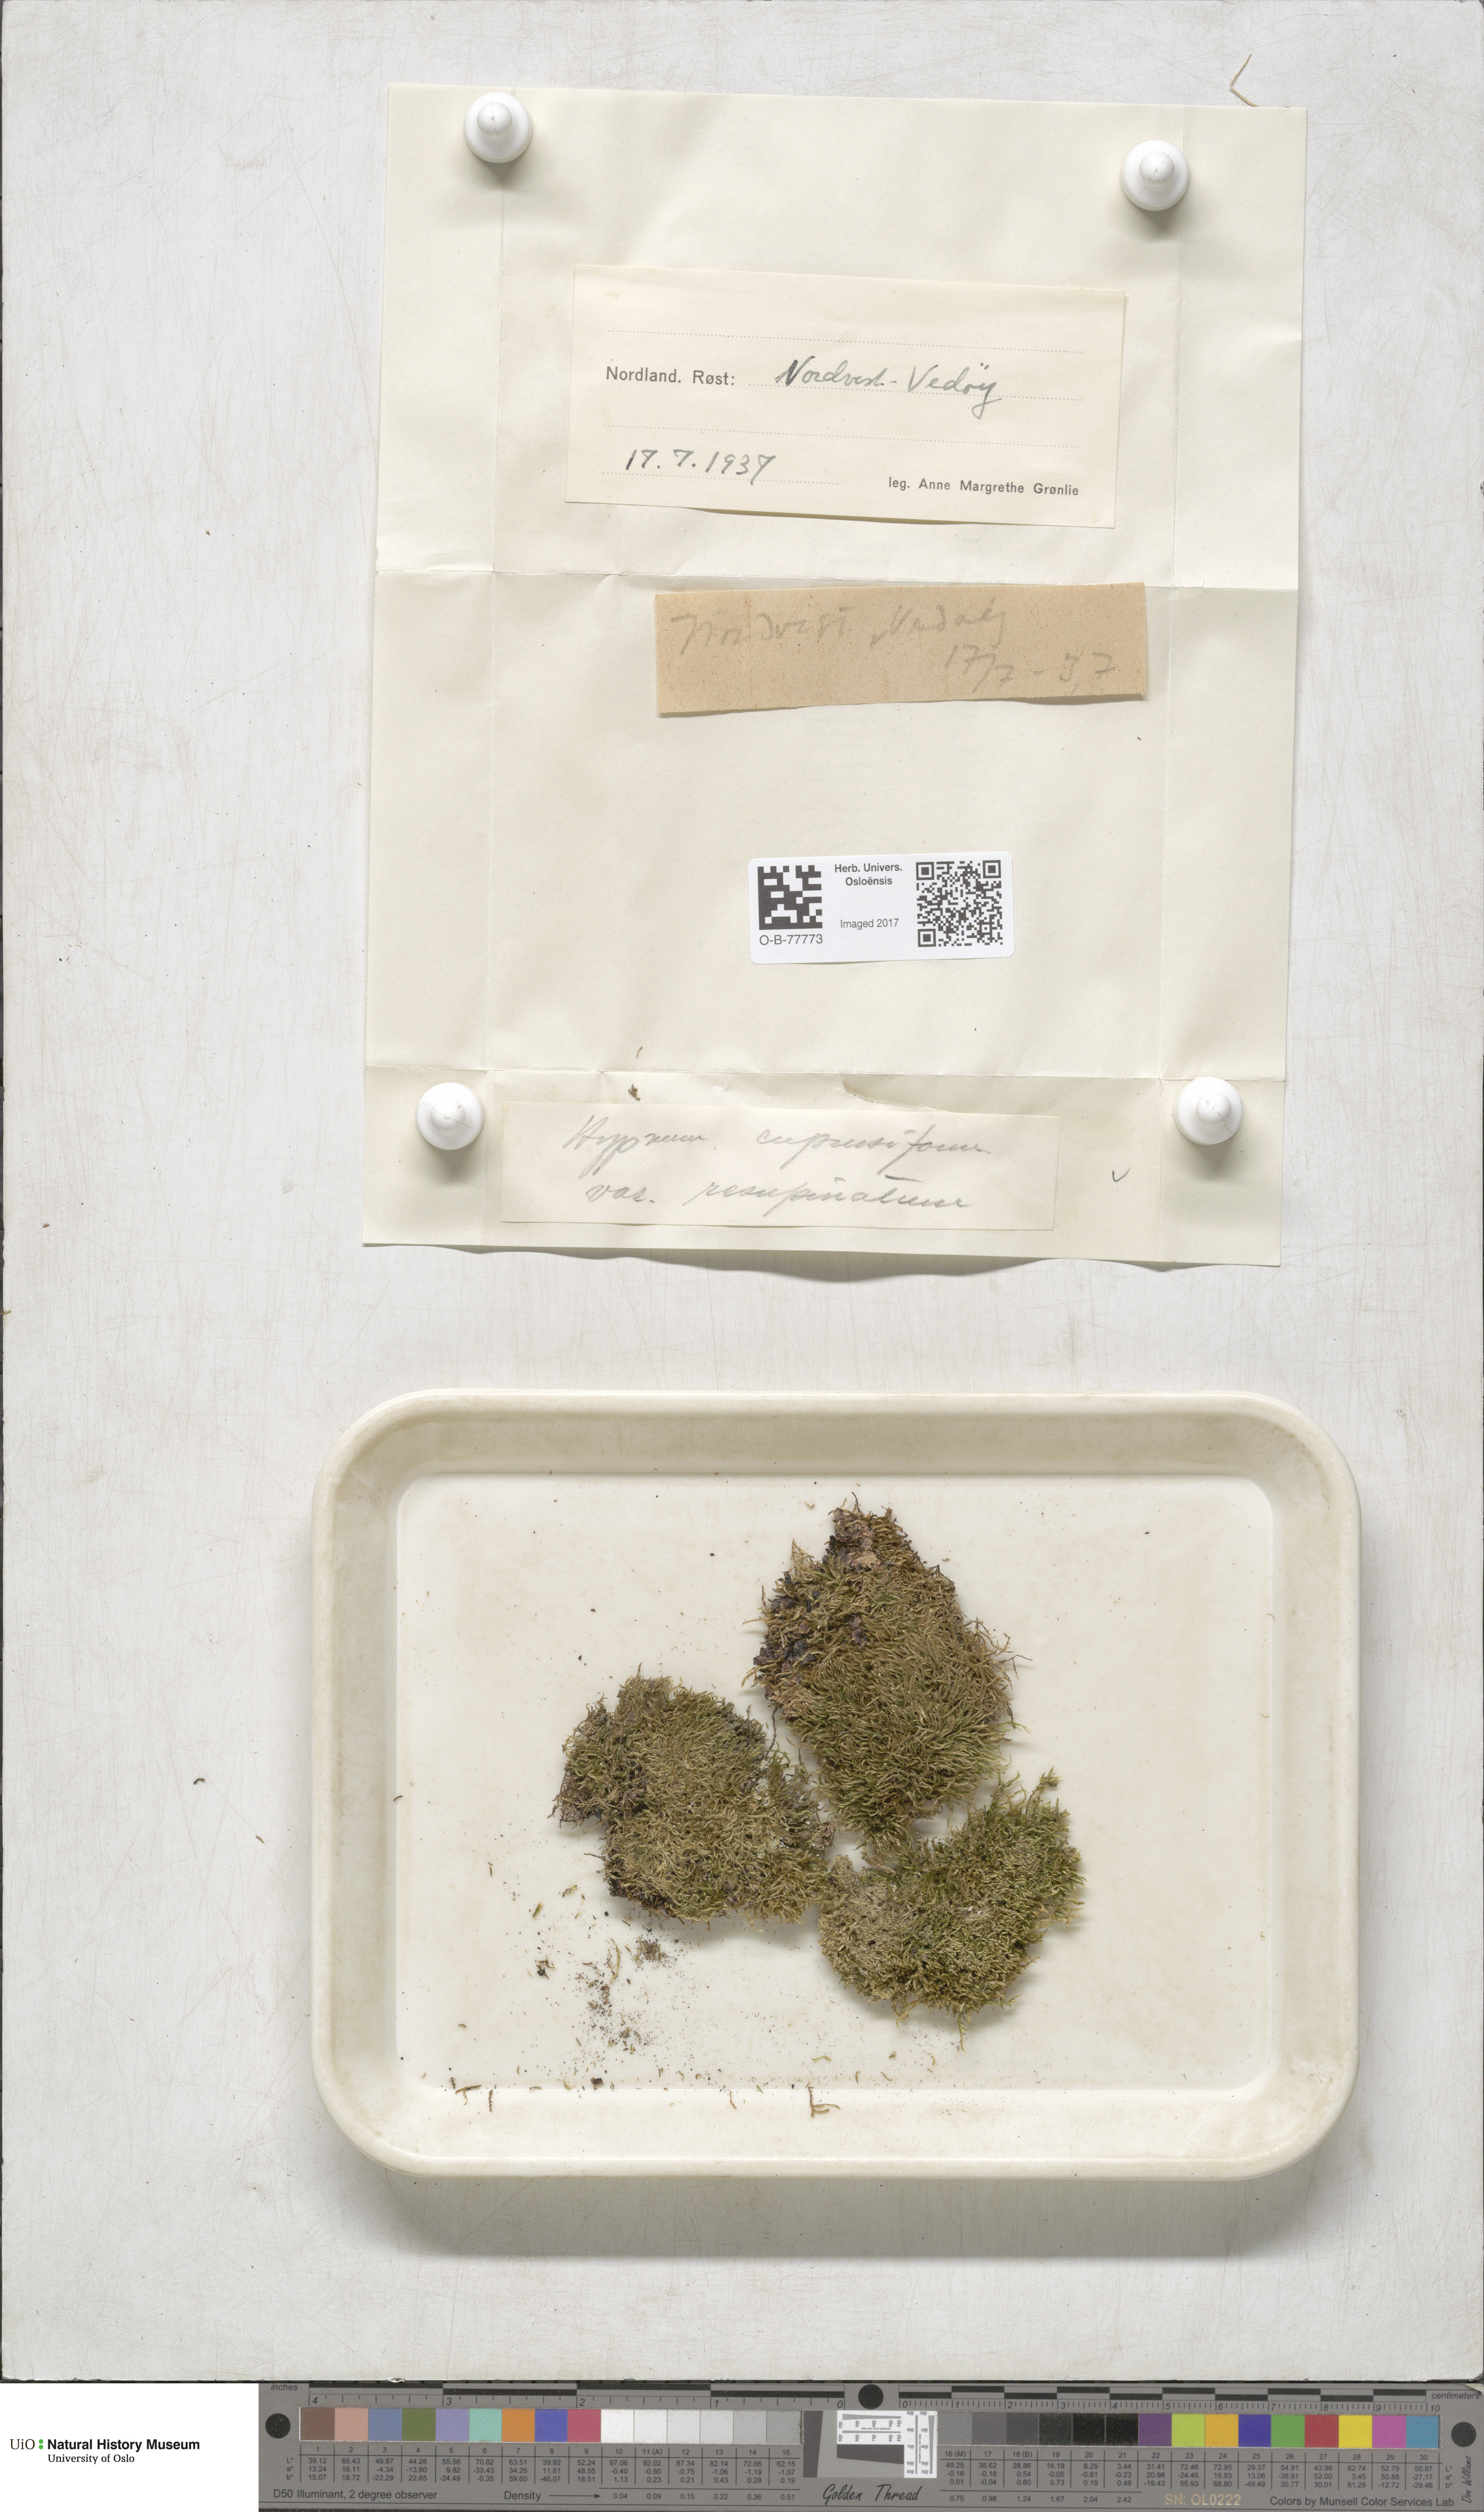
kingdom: Plantae
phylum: Bryophyta
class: Bryopsida
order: Hypnales
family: Hypnaceae
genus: Hypnum
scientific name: Hypnum cupressiforme
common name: Cypress-leaved plait-moss
